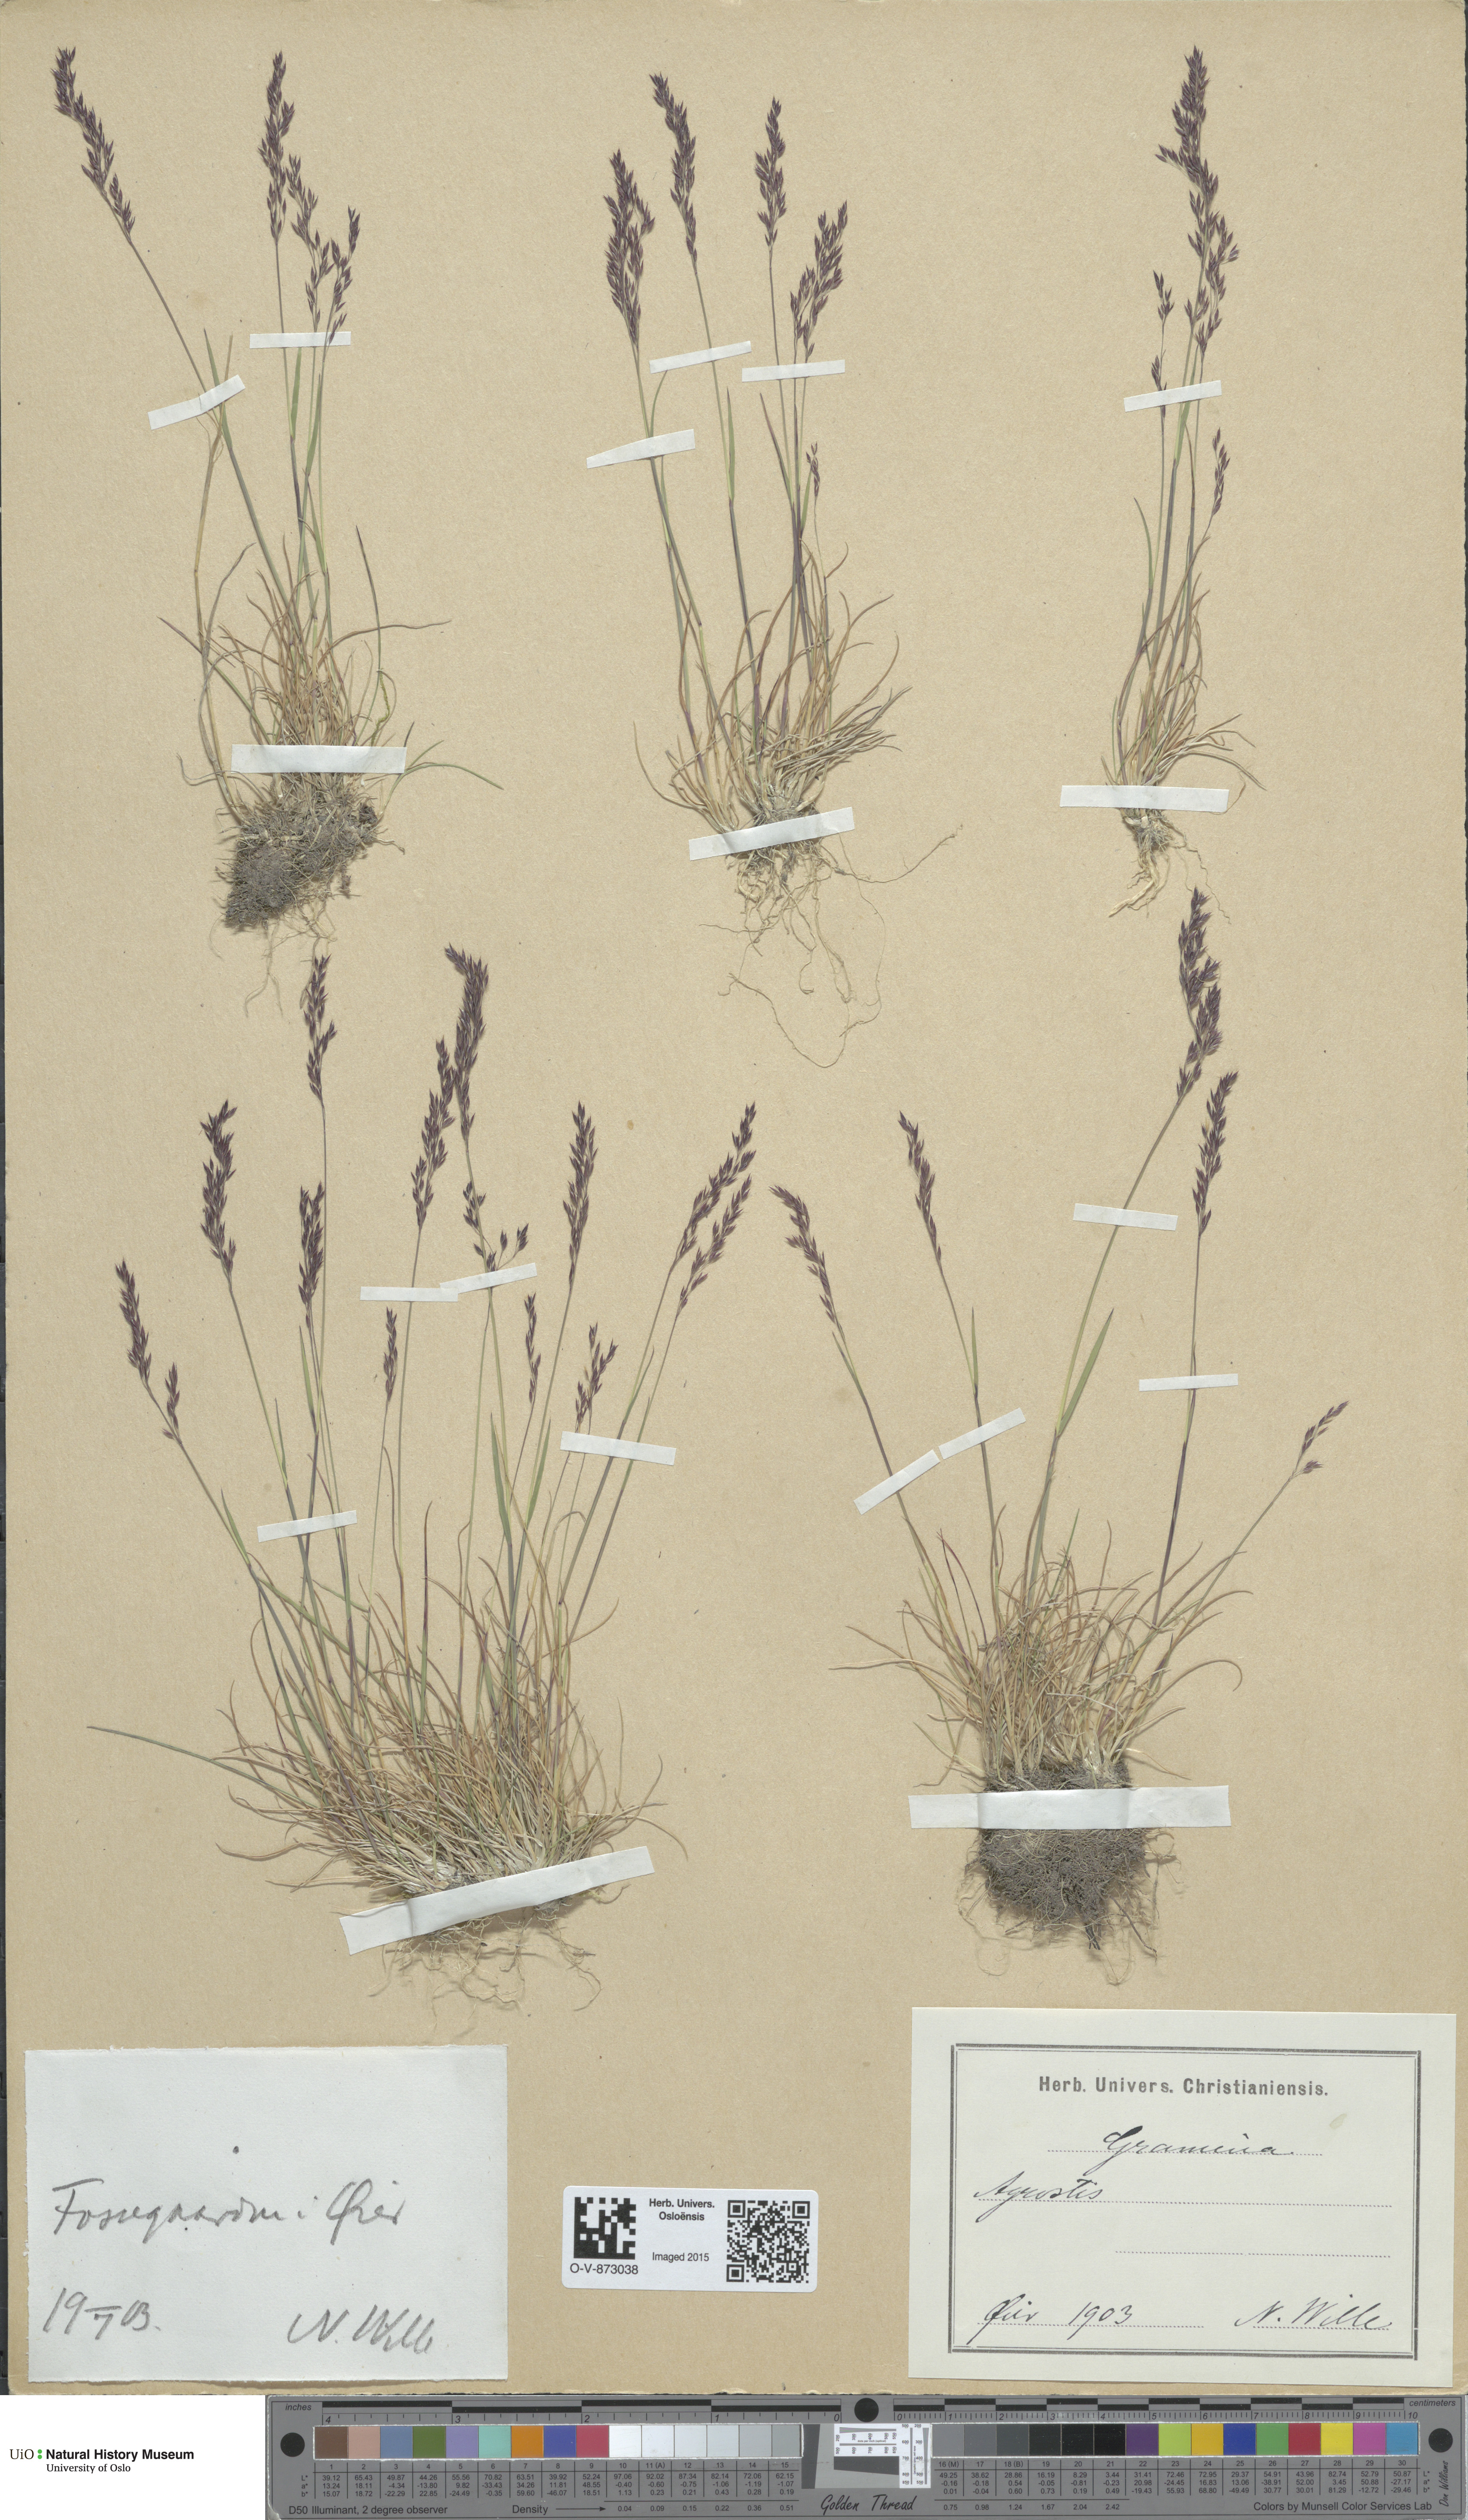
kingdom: Plantae
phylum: Tracheophyta
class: Liliopsida
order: Poales
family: Poaceae
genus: Agrostis
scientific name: Agrostis canina
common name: Velvet bent
